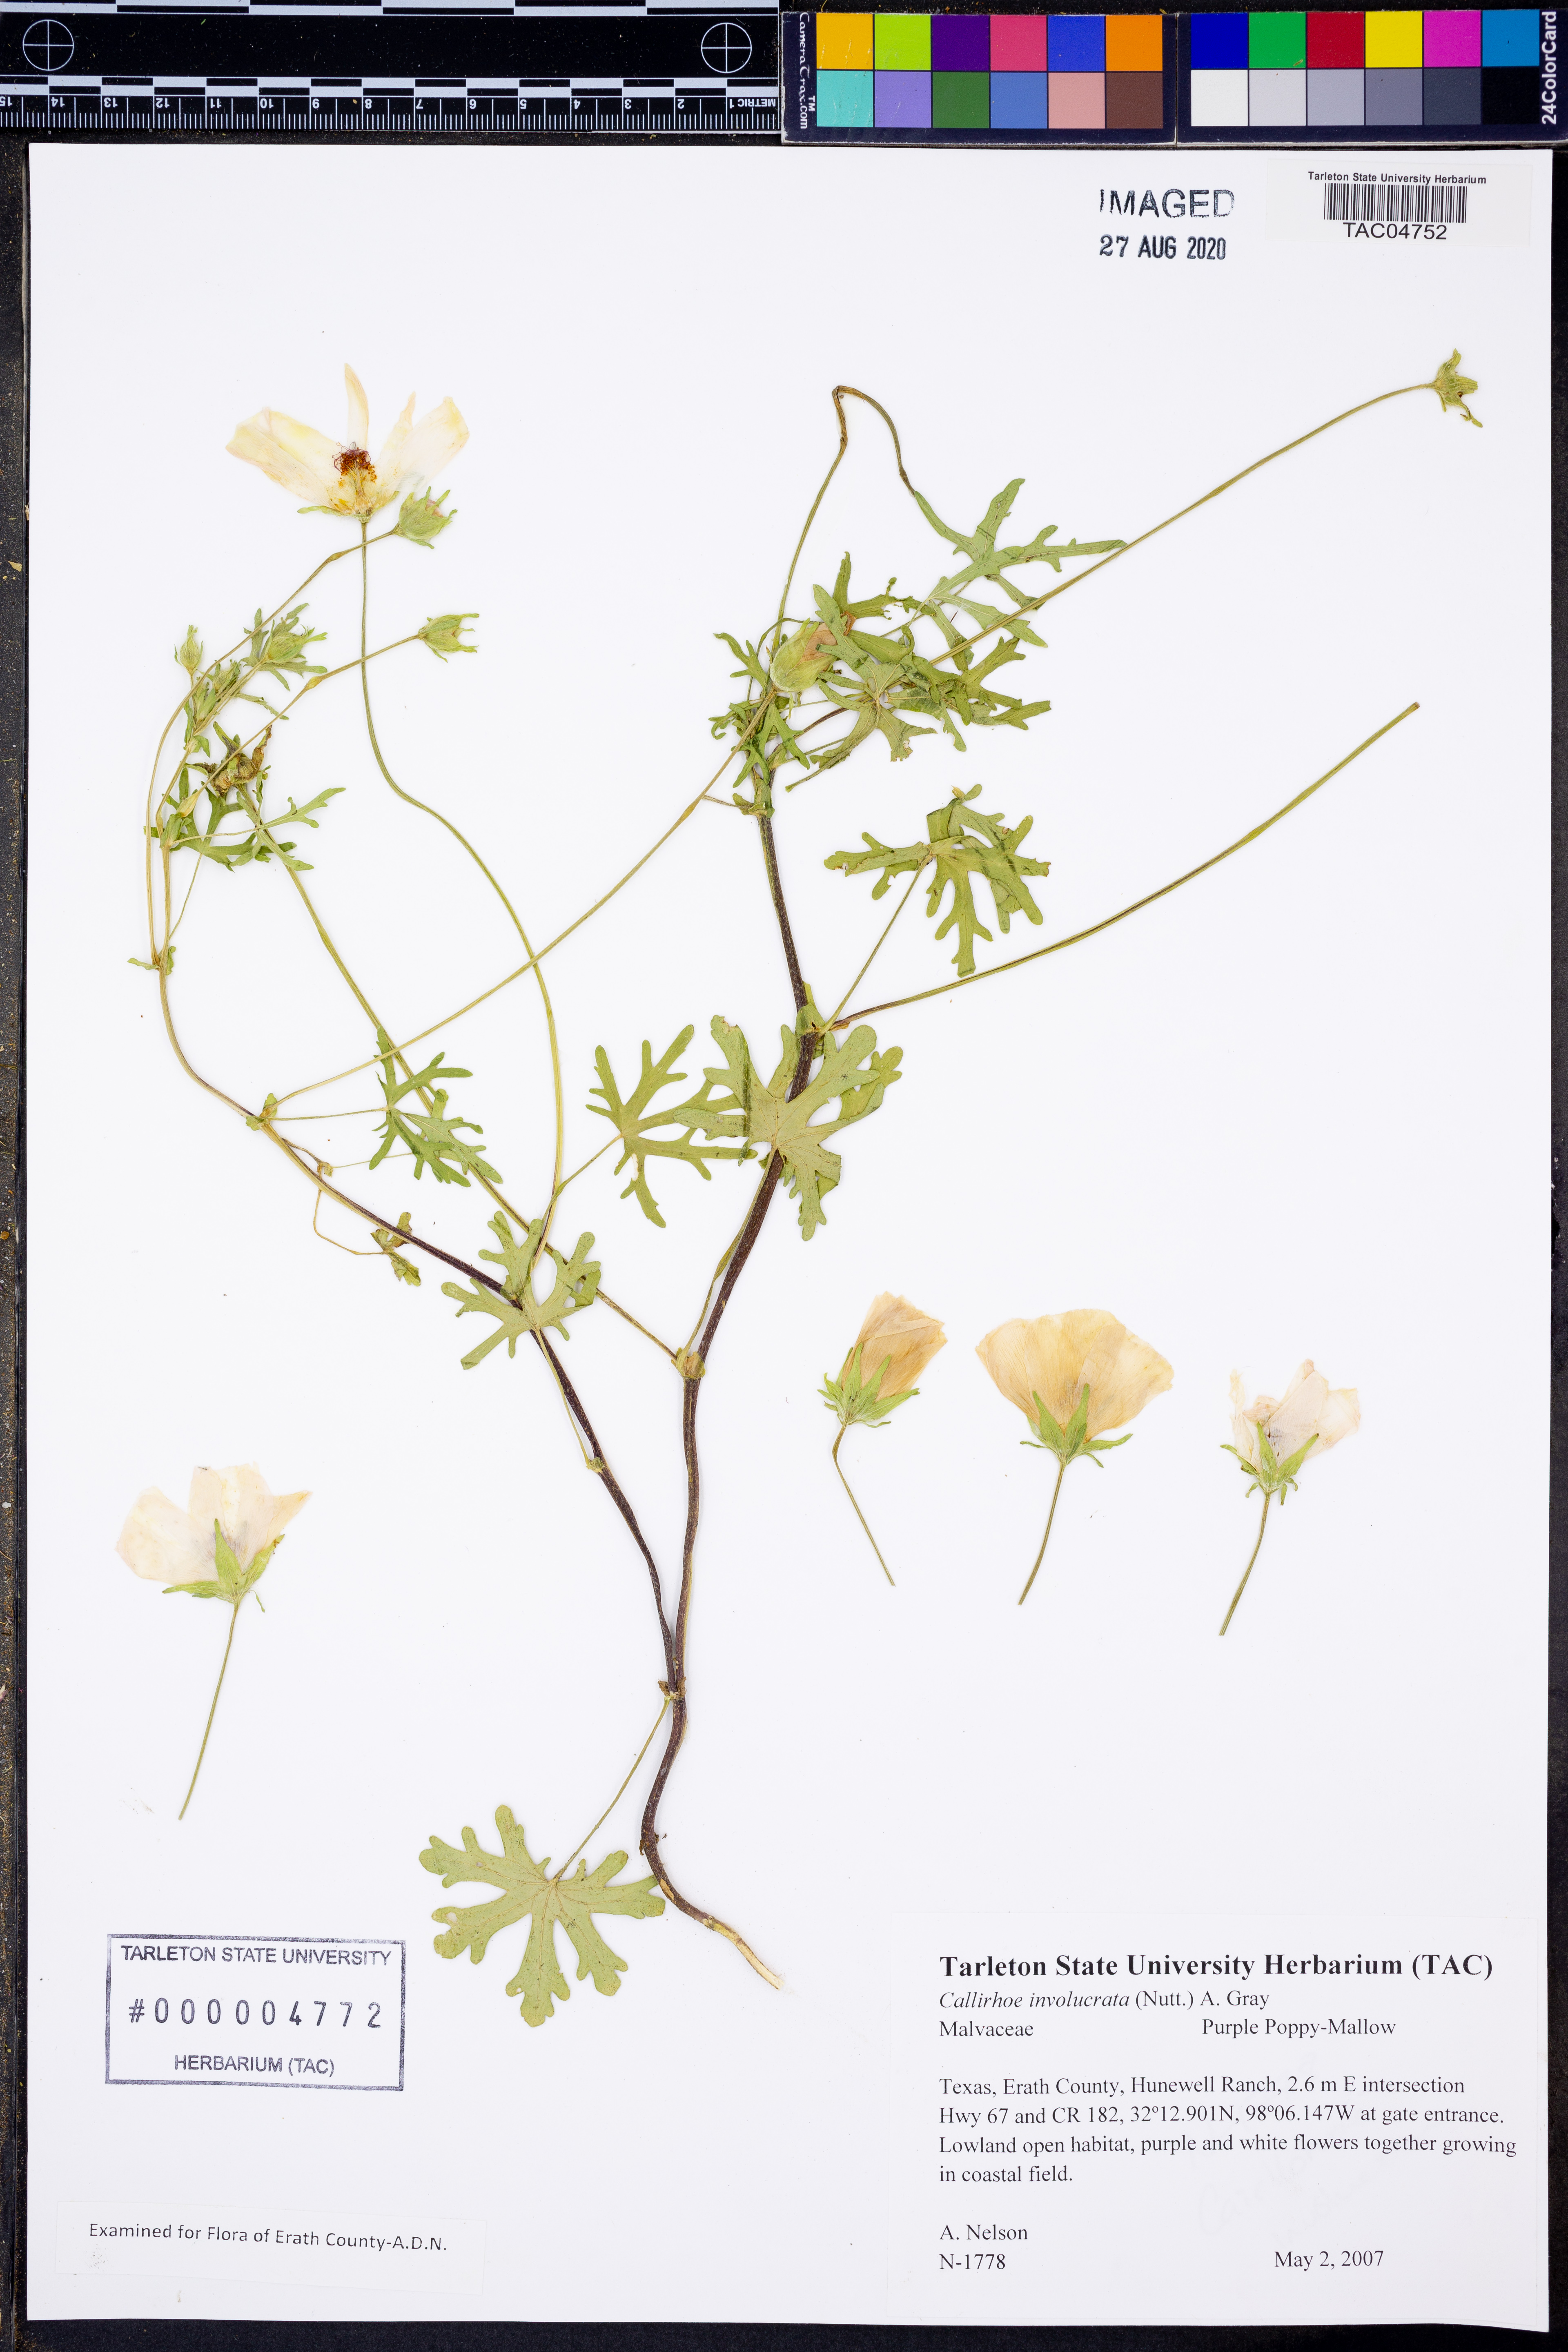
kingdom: Plantae
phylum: Tracheophyta
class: Magnoliopsida
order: Malvales
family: Malvaceae
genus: Callirhoe
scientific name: Callirhoe involucrata
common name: Purple poppy-mallow
